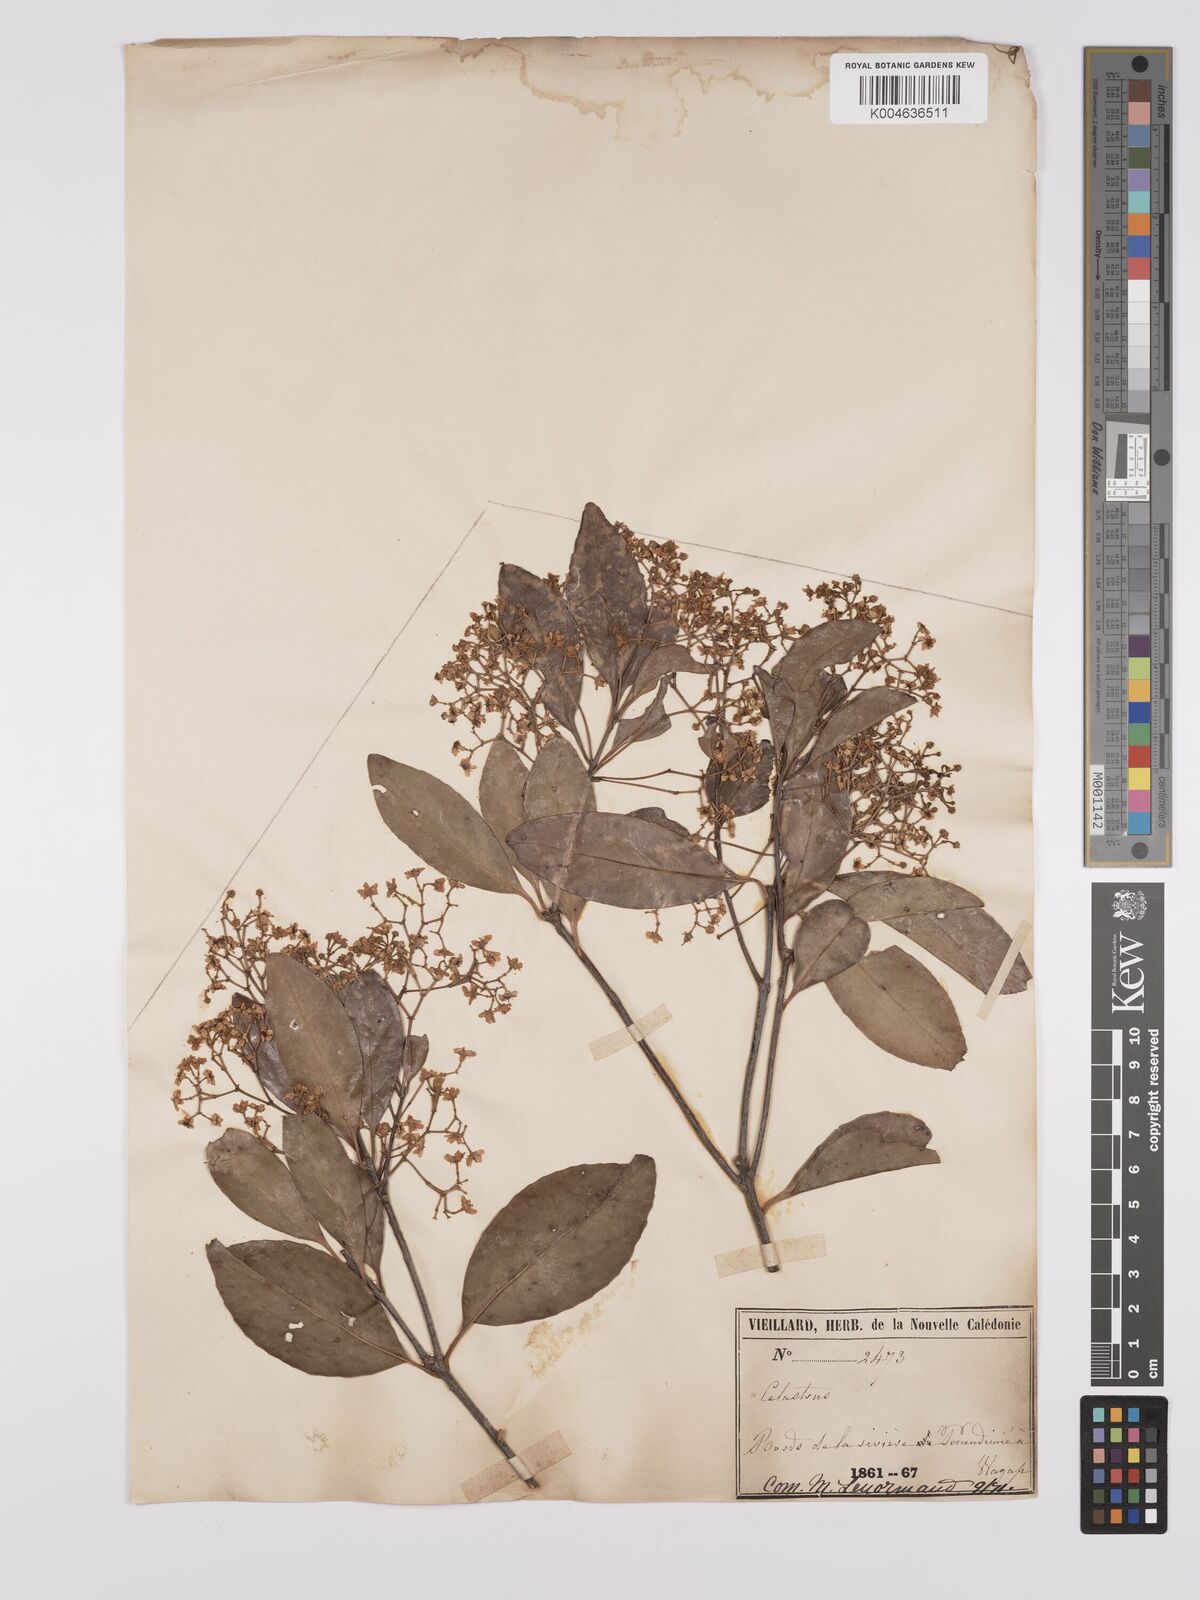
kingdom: Plantae
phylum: Tracheophyta
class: Magnoliopsida
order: Celastrales
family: Celastraceae
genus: Celastrus
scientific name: Celastrus
